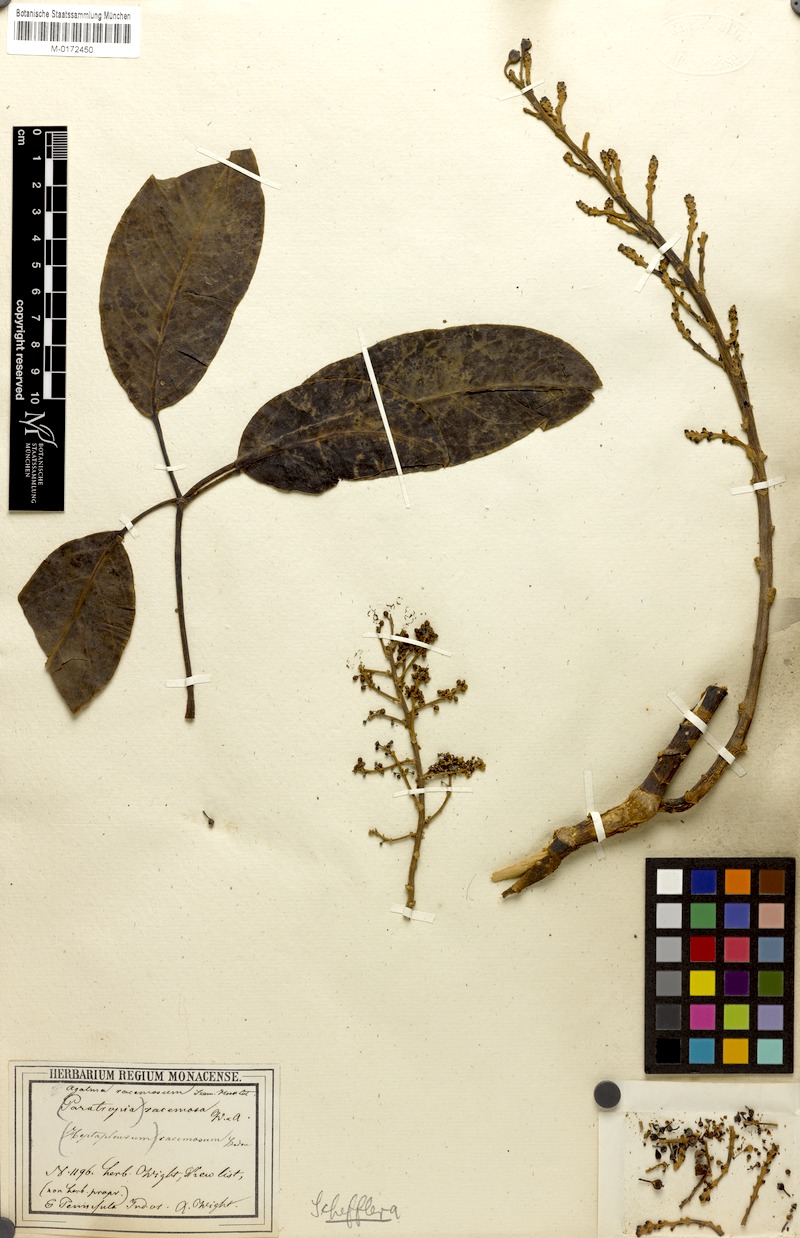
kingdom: Plantae
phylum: Tracheophyta
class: Magnoliopsida
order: Apiales
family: Araliaceae
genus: Heptapleurum
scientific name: Heptapleurum racemosum
